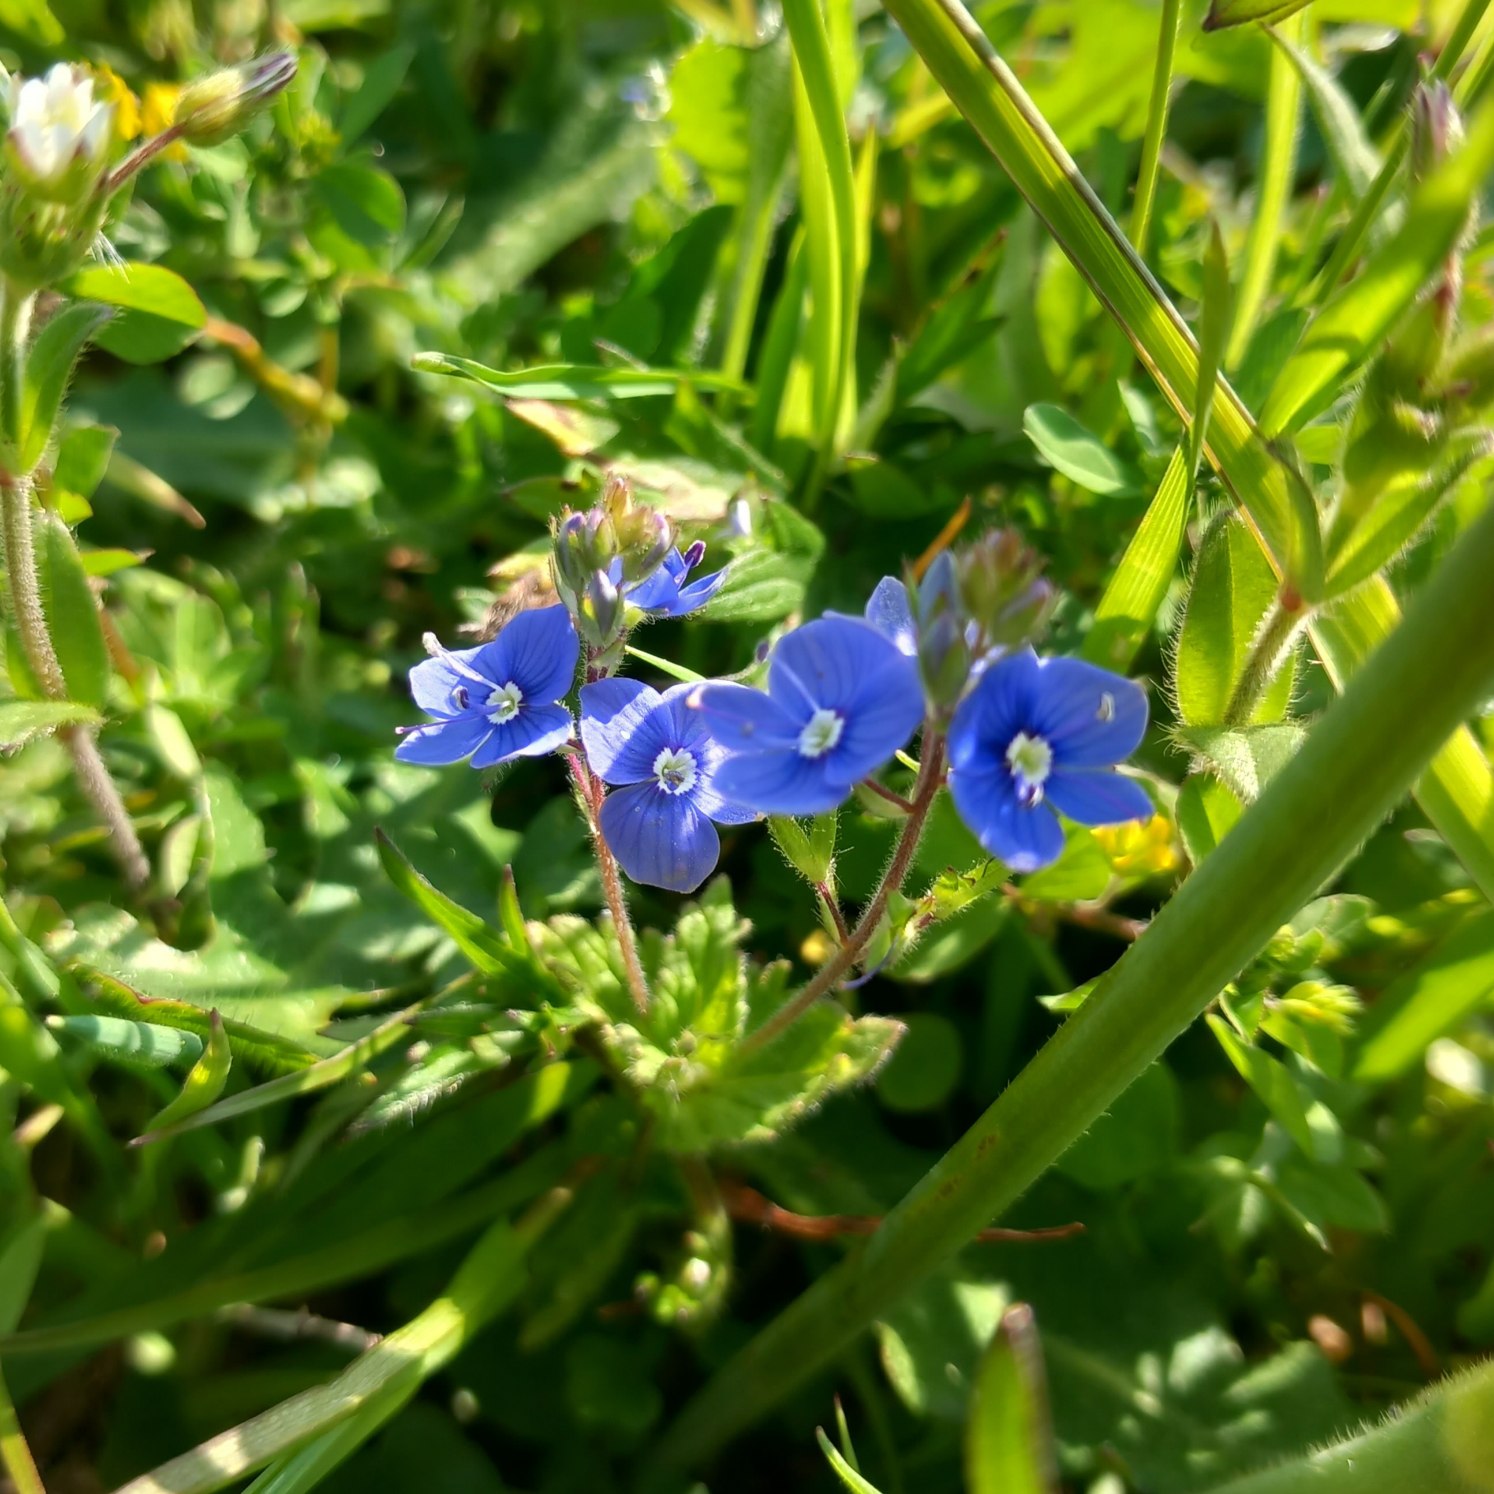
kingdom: Plantae
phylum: Tracheophyta
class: Magnoliopsida
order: Lamiales
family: Plantaginaceae
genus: Veronica
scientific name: Veronica chamaedrys
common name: Tveskægget ærenpris
